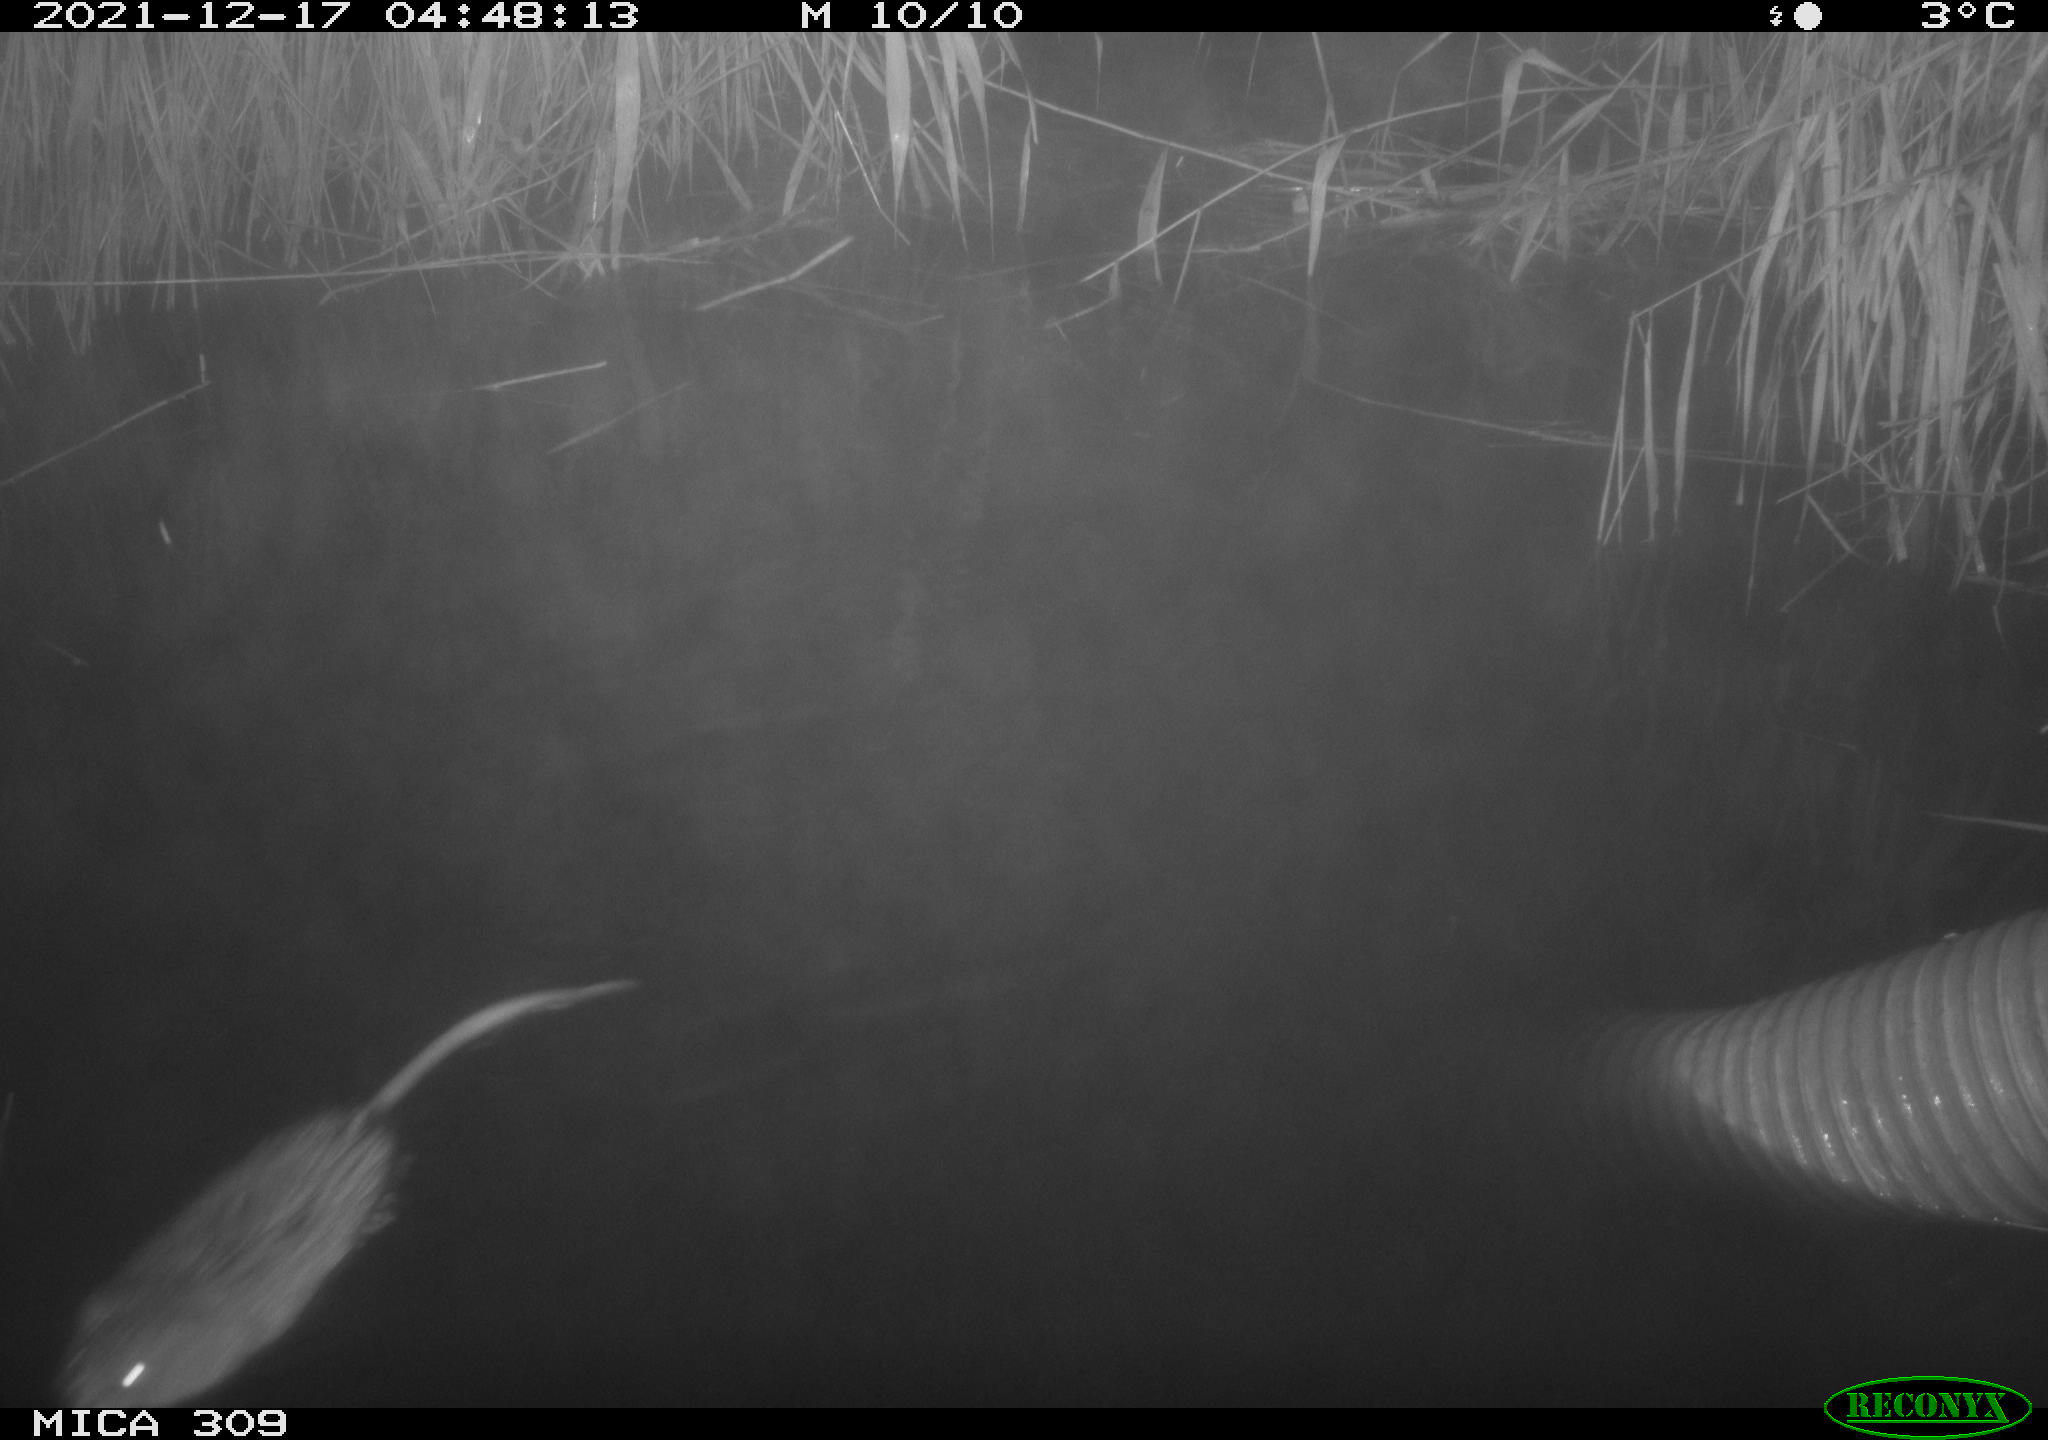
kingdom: Animalia
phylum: Chordata
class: Mammalia
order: Rodentia
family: Cricetidae
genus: Ondatra
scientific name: Ondatra zibethicus
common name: Muskrat
